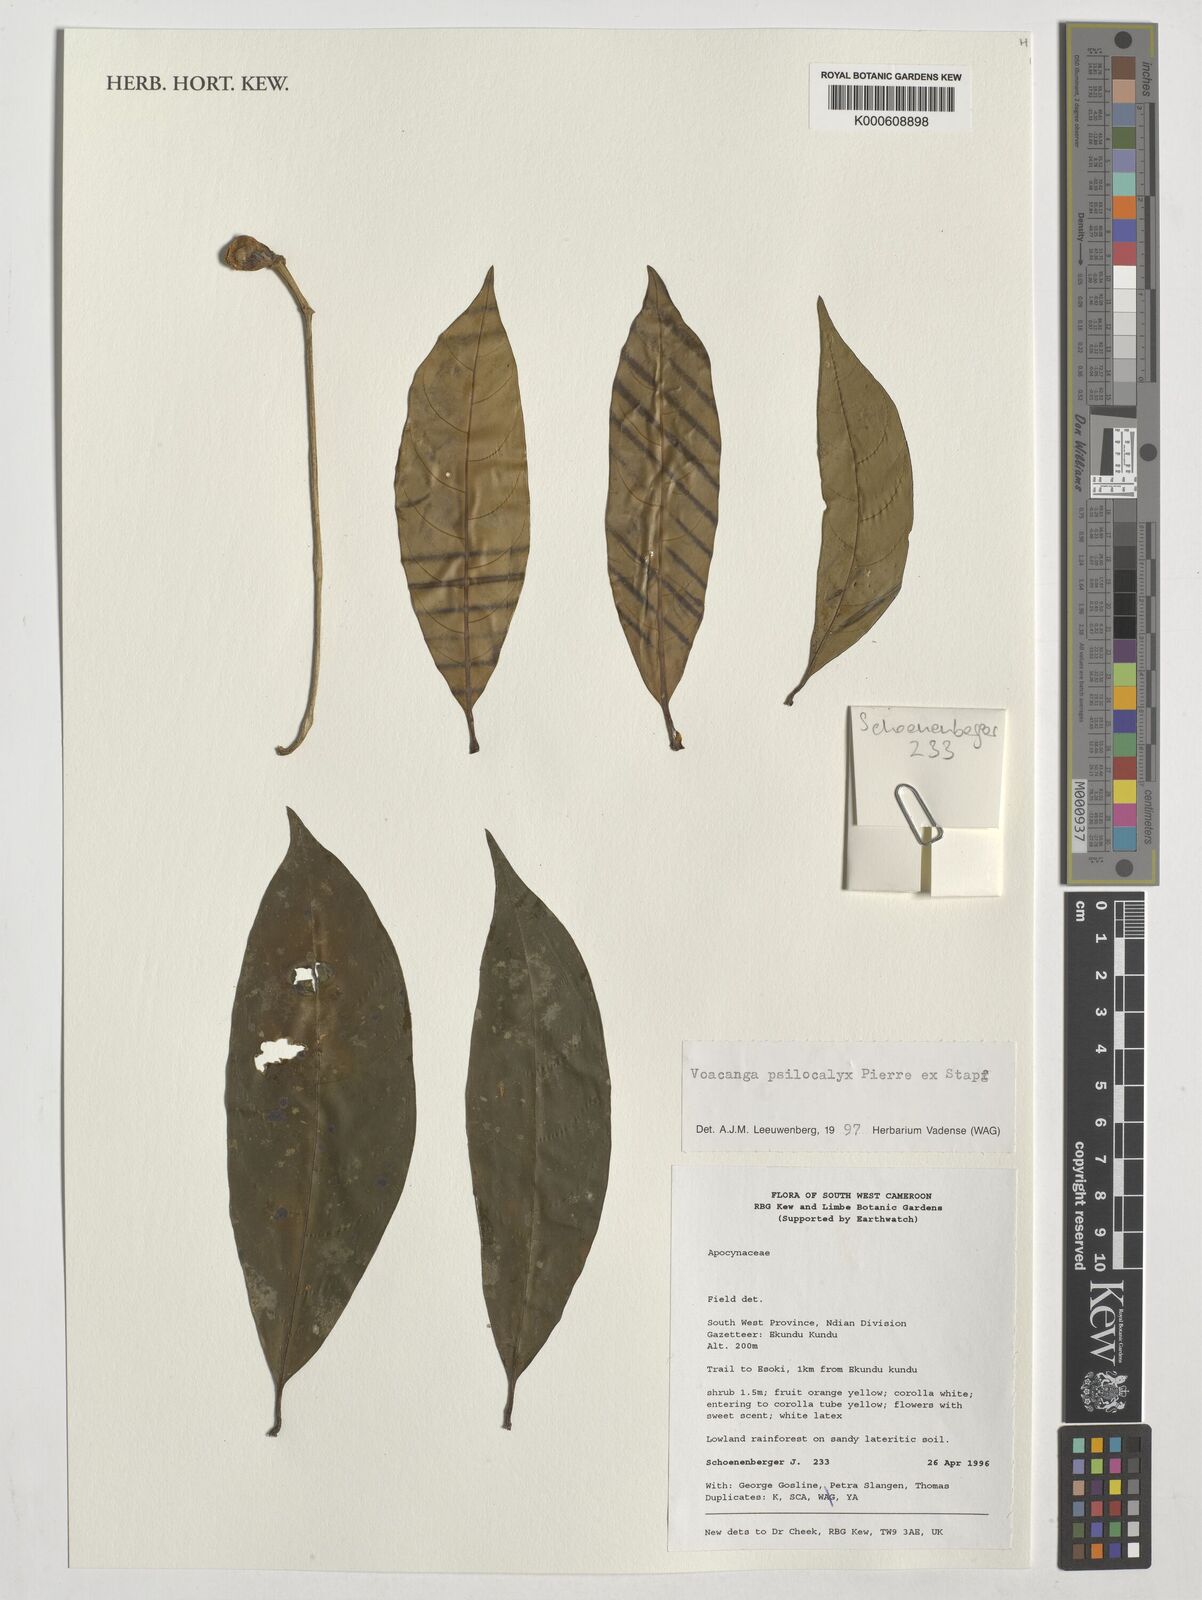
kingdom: Plantae
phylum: Tracheophyta
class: Magnoliopsida
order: Gentianales
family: Apocynaceae
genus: Voacanga
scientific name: Voacanga psilocalyx
